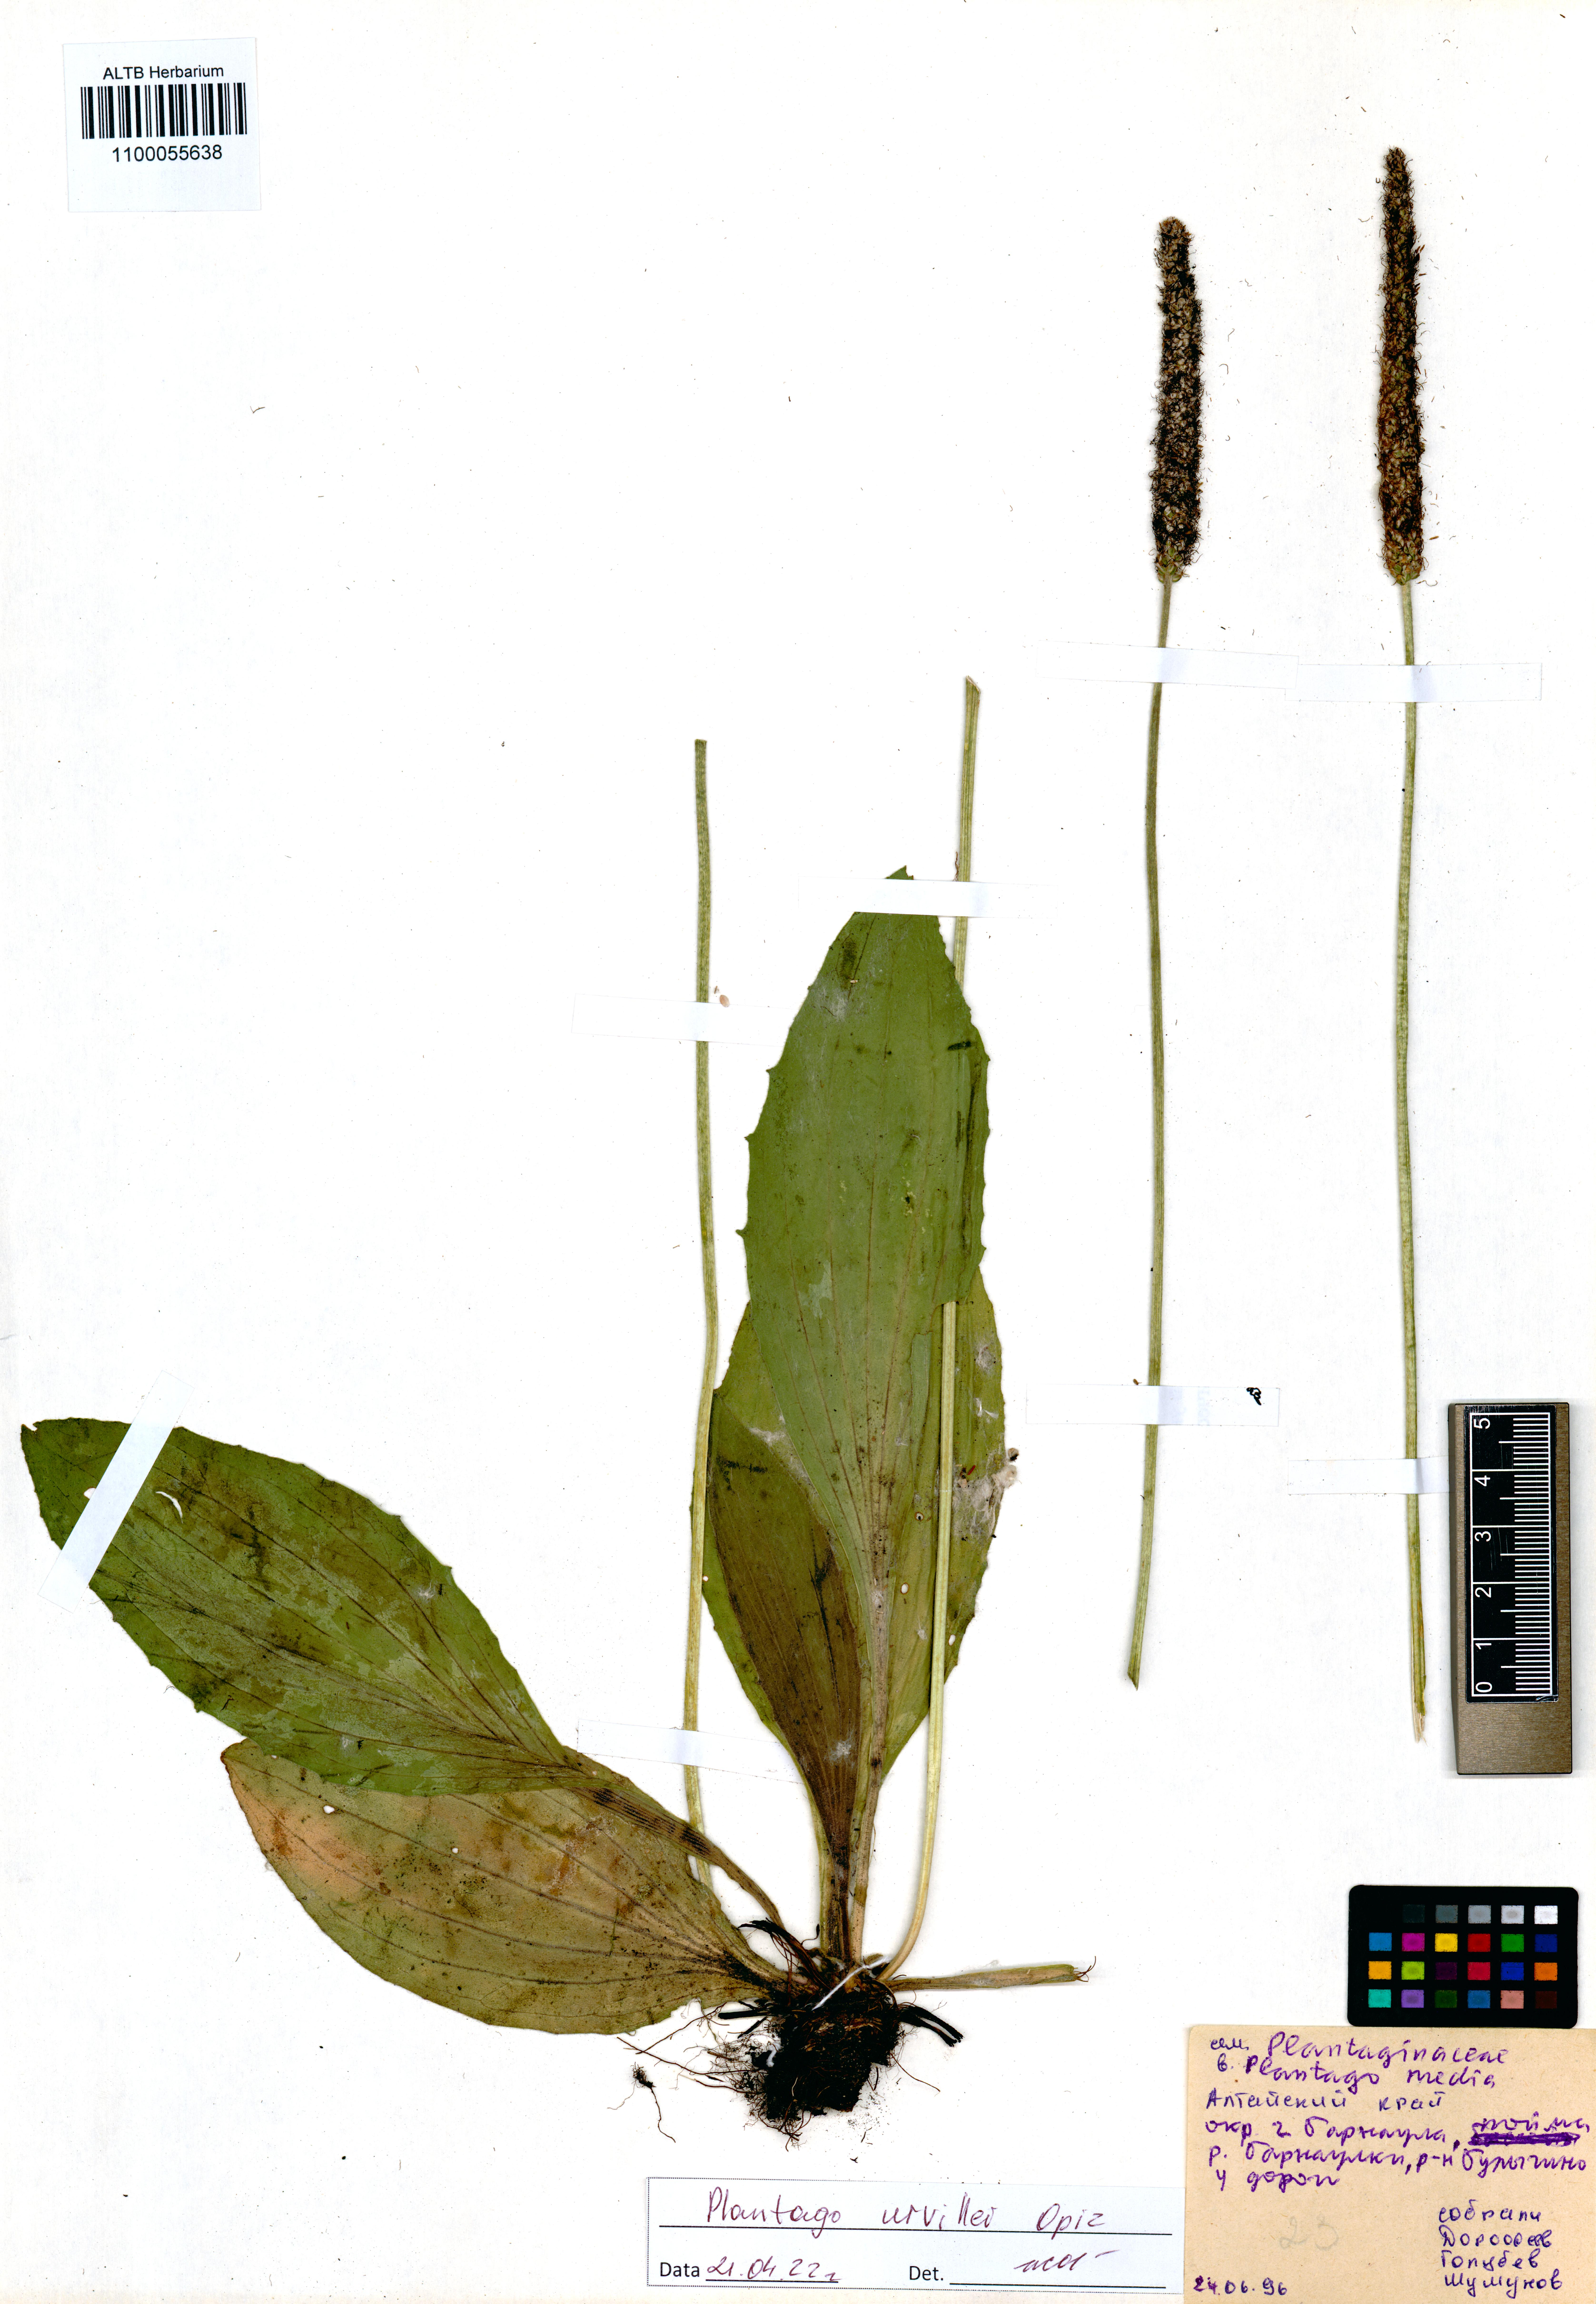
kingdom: Plantae
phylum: Tracheophyta
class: Magnoliopsida
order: Lamiales
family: Plantaginaceae
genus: Plantago
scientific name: Plantago urvillei
